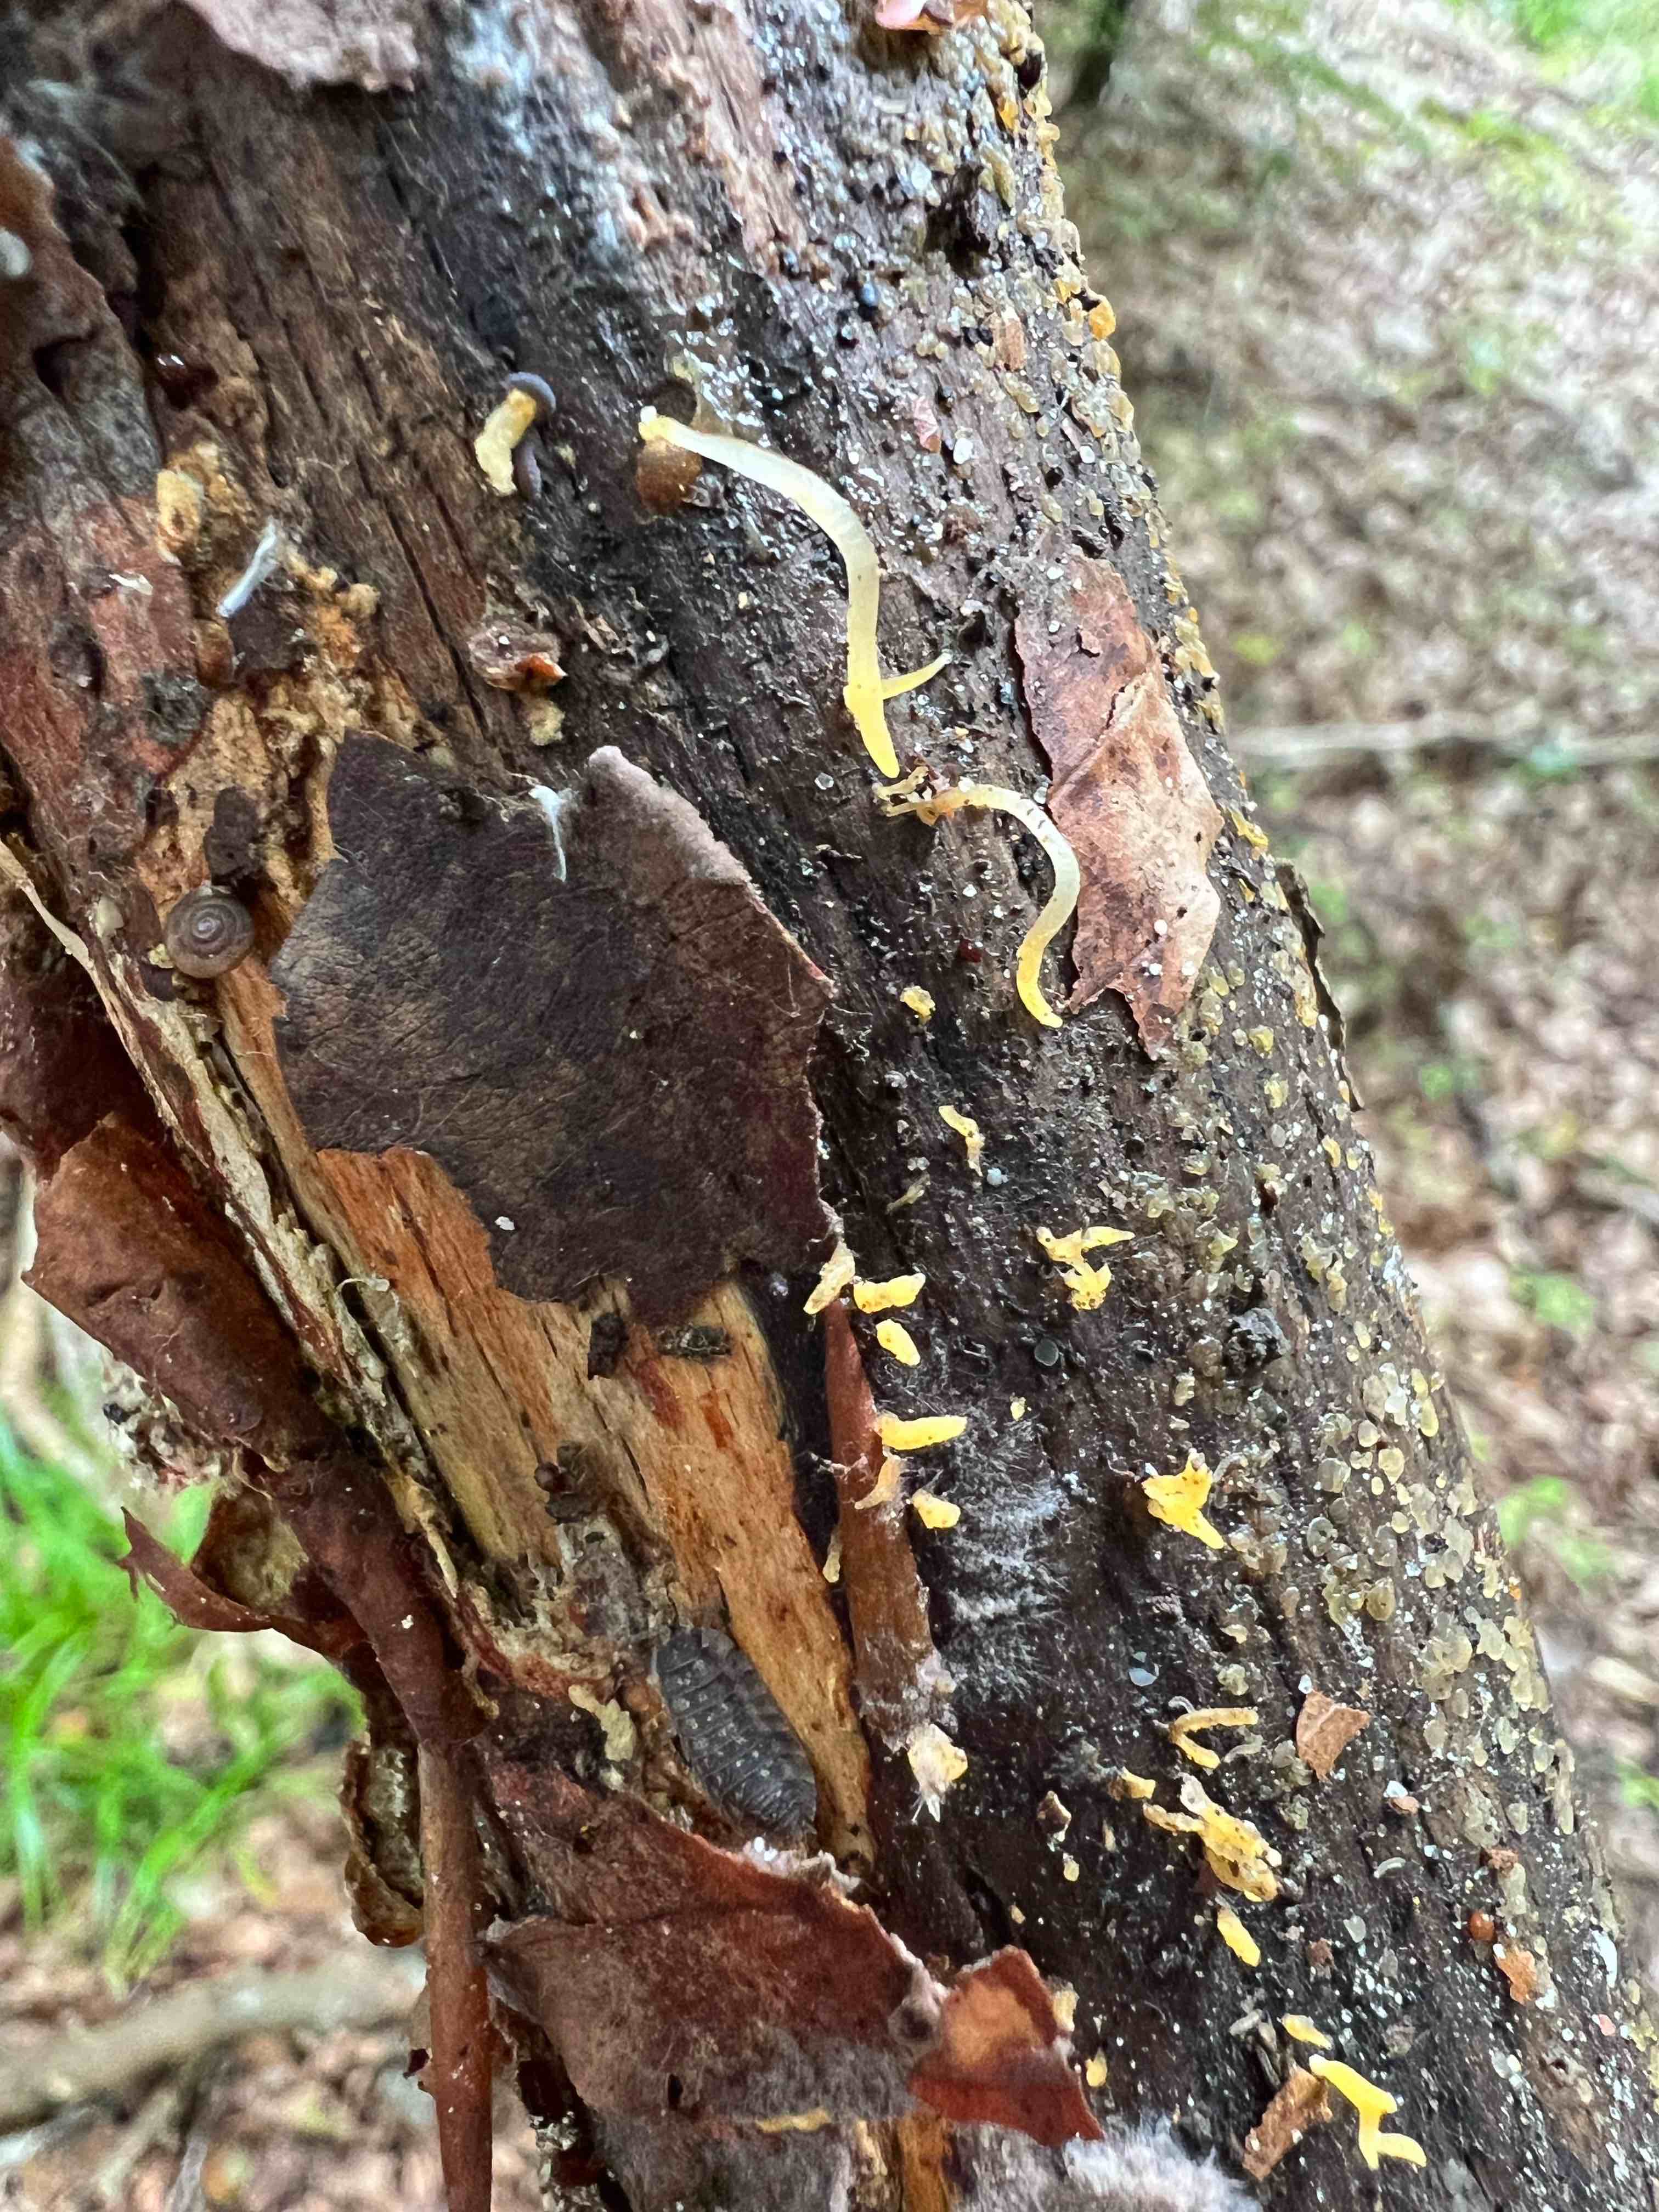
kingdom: Fungi
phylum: Basidiomycota
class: Dacrymycetes
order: Dacrymycetales
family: Dacrymycetaceae
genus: Calocera
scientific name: Calocera cornea
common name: liden guldgaffel
